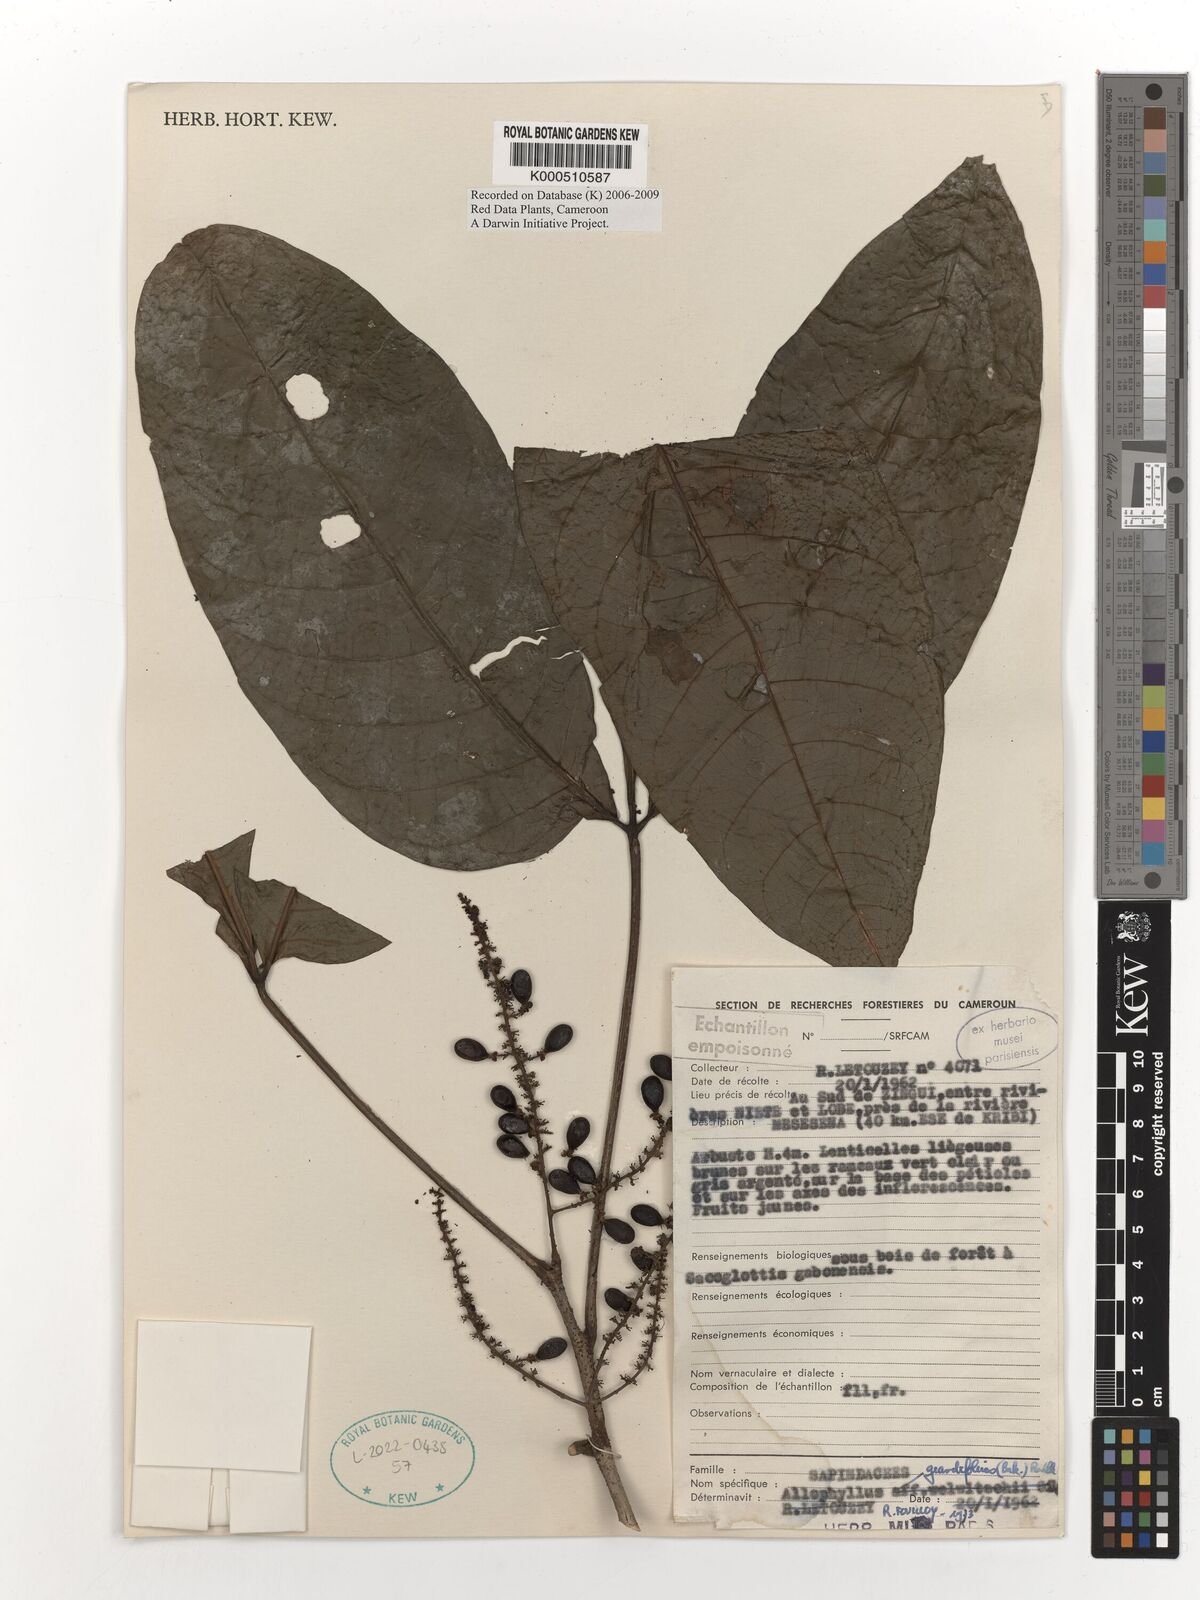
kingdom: Plantae
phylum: Tracheophyta
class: Magnoliopsida
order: Sapindales
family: Sapindaceae
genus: Allophylus
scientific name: Allophylus grandifolius
